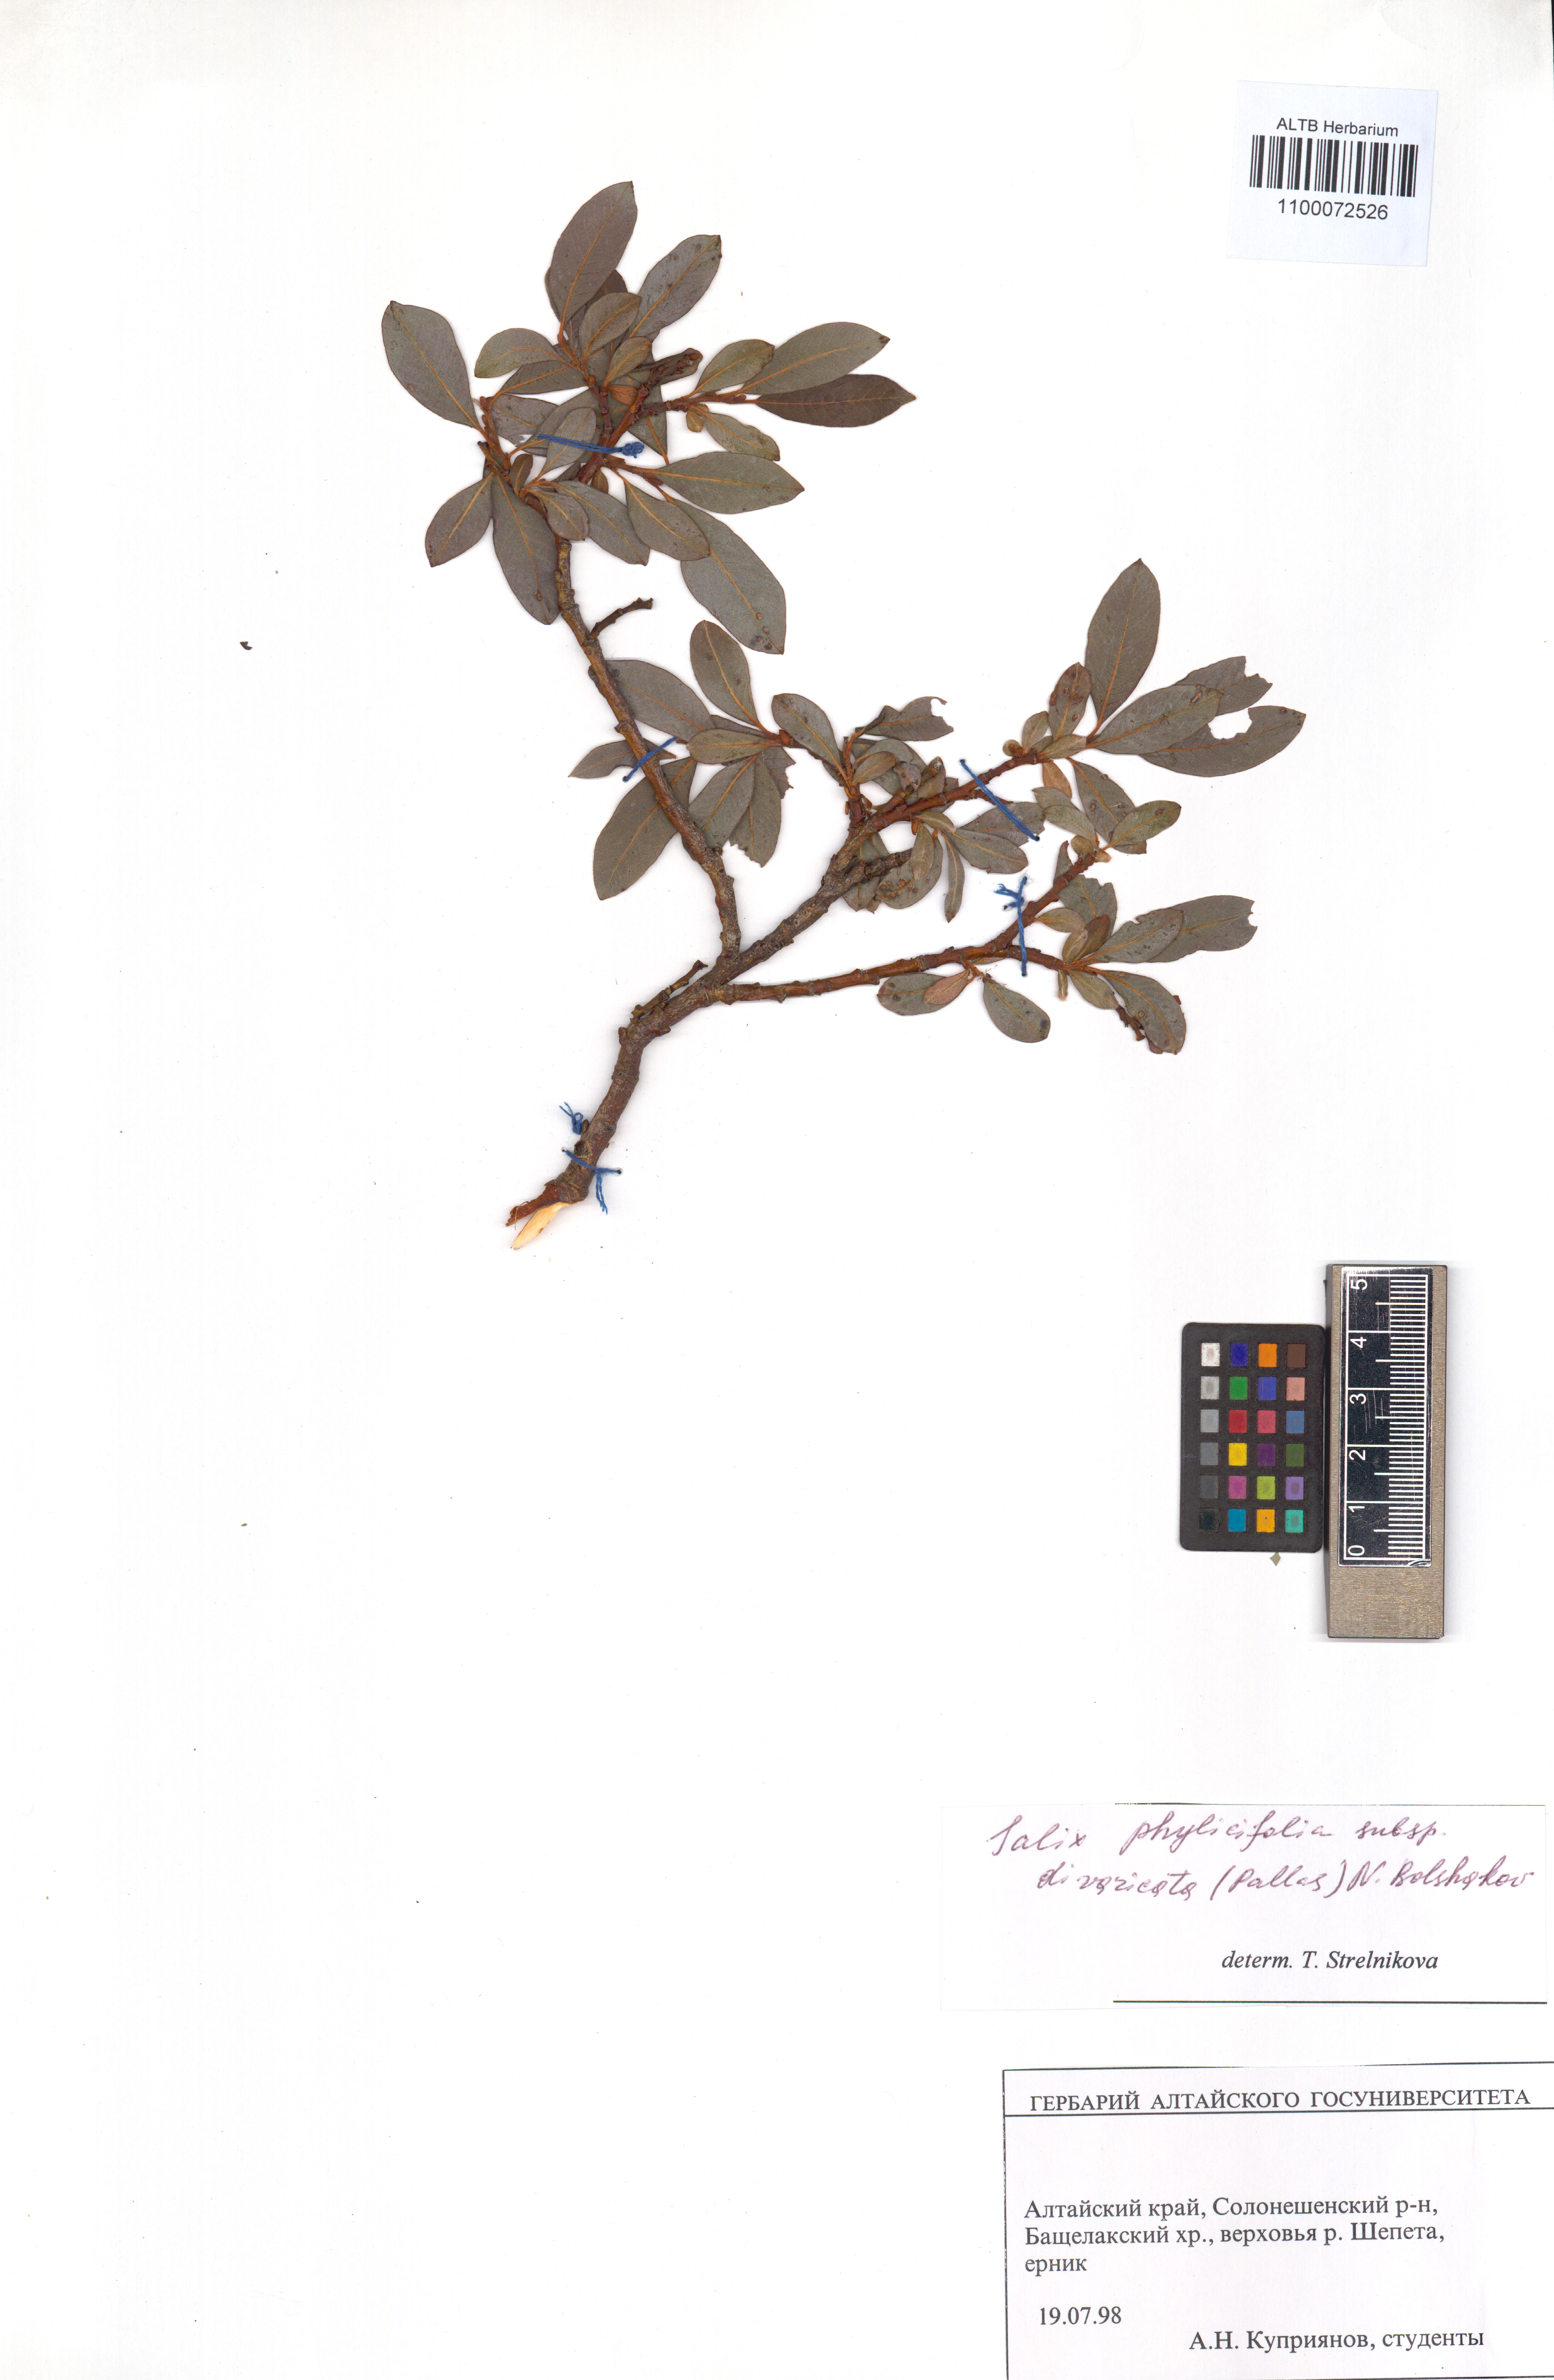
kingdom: Plantae
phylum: Tracheophyta
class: Magnoliopsida
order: Malpighiales
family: Salicaceae
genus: Salix
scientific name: Salix phylicifolia
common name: Tea-leaved willow
